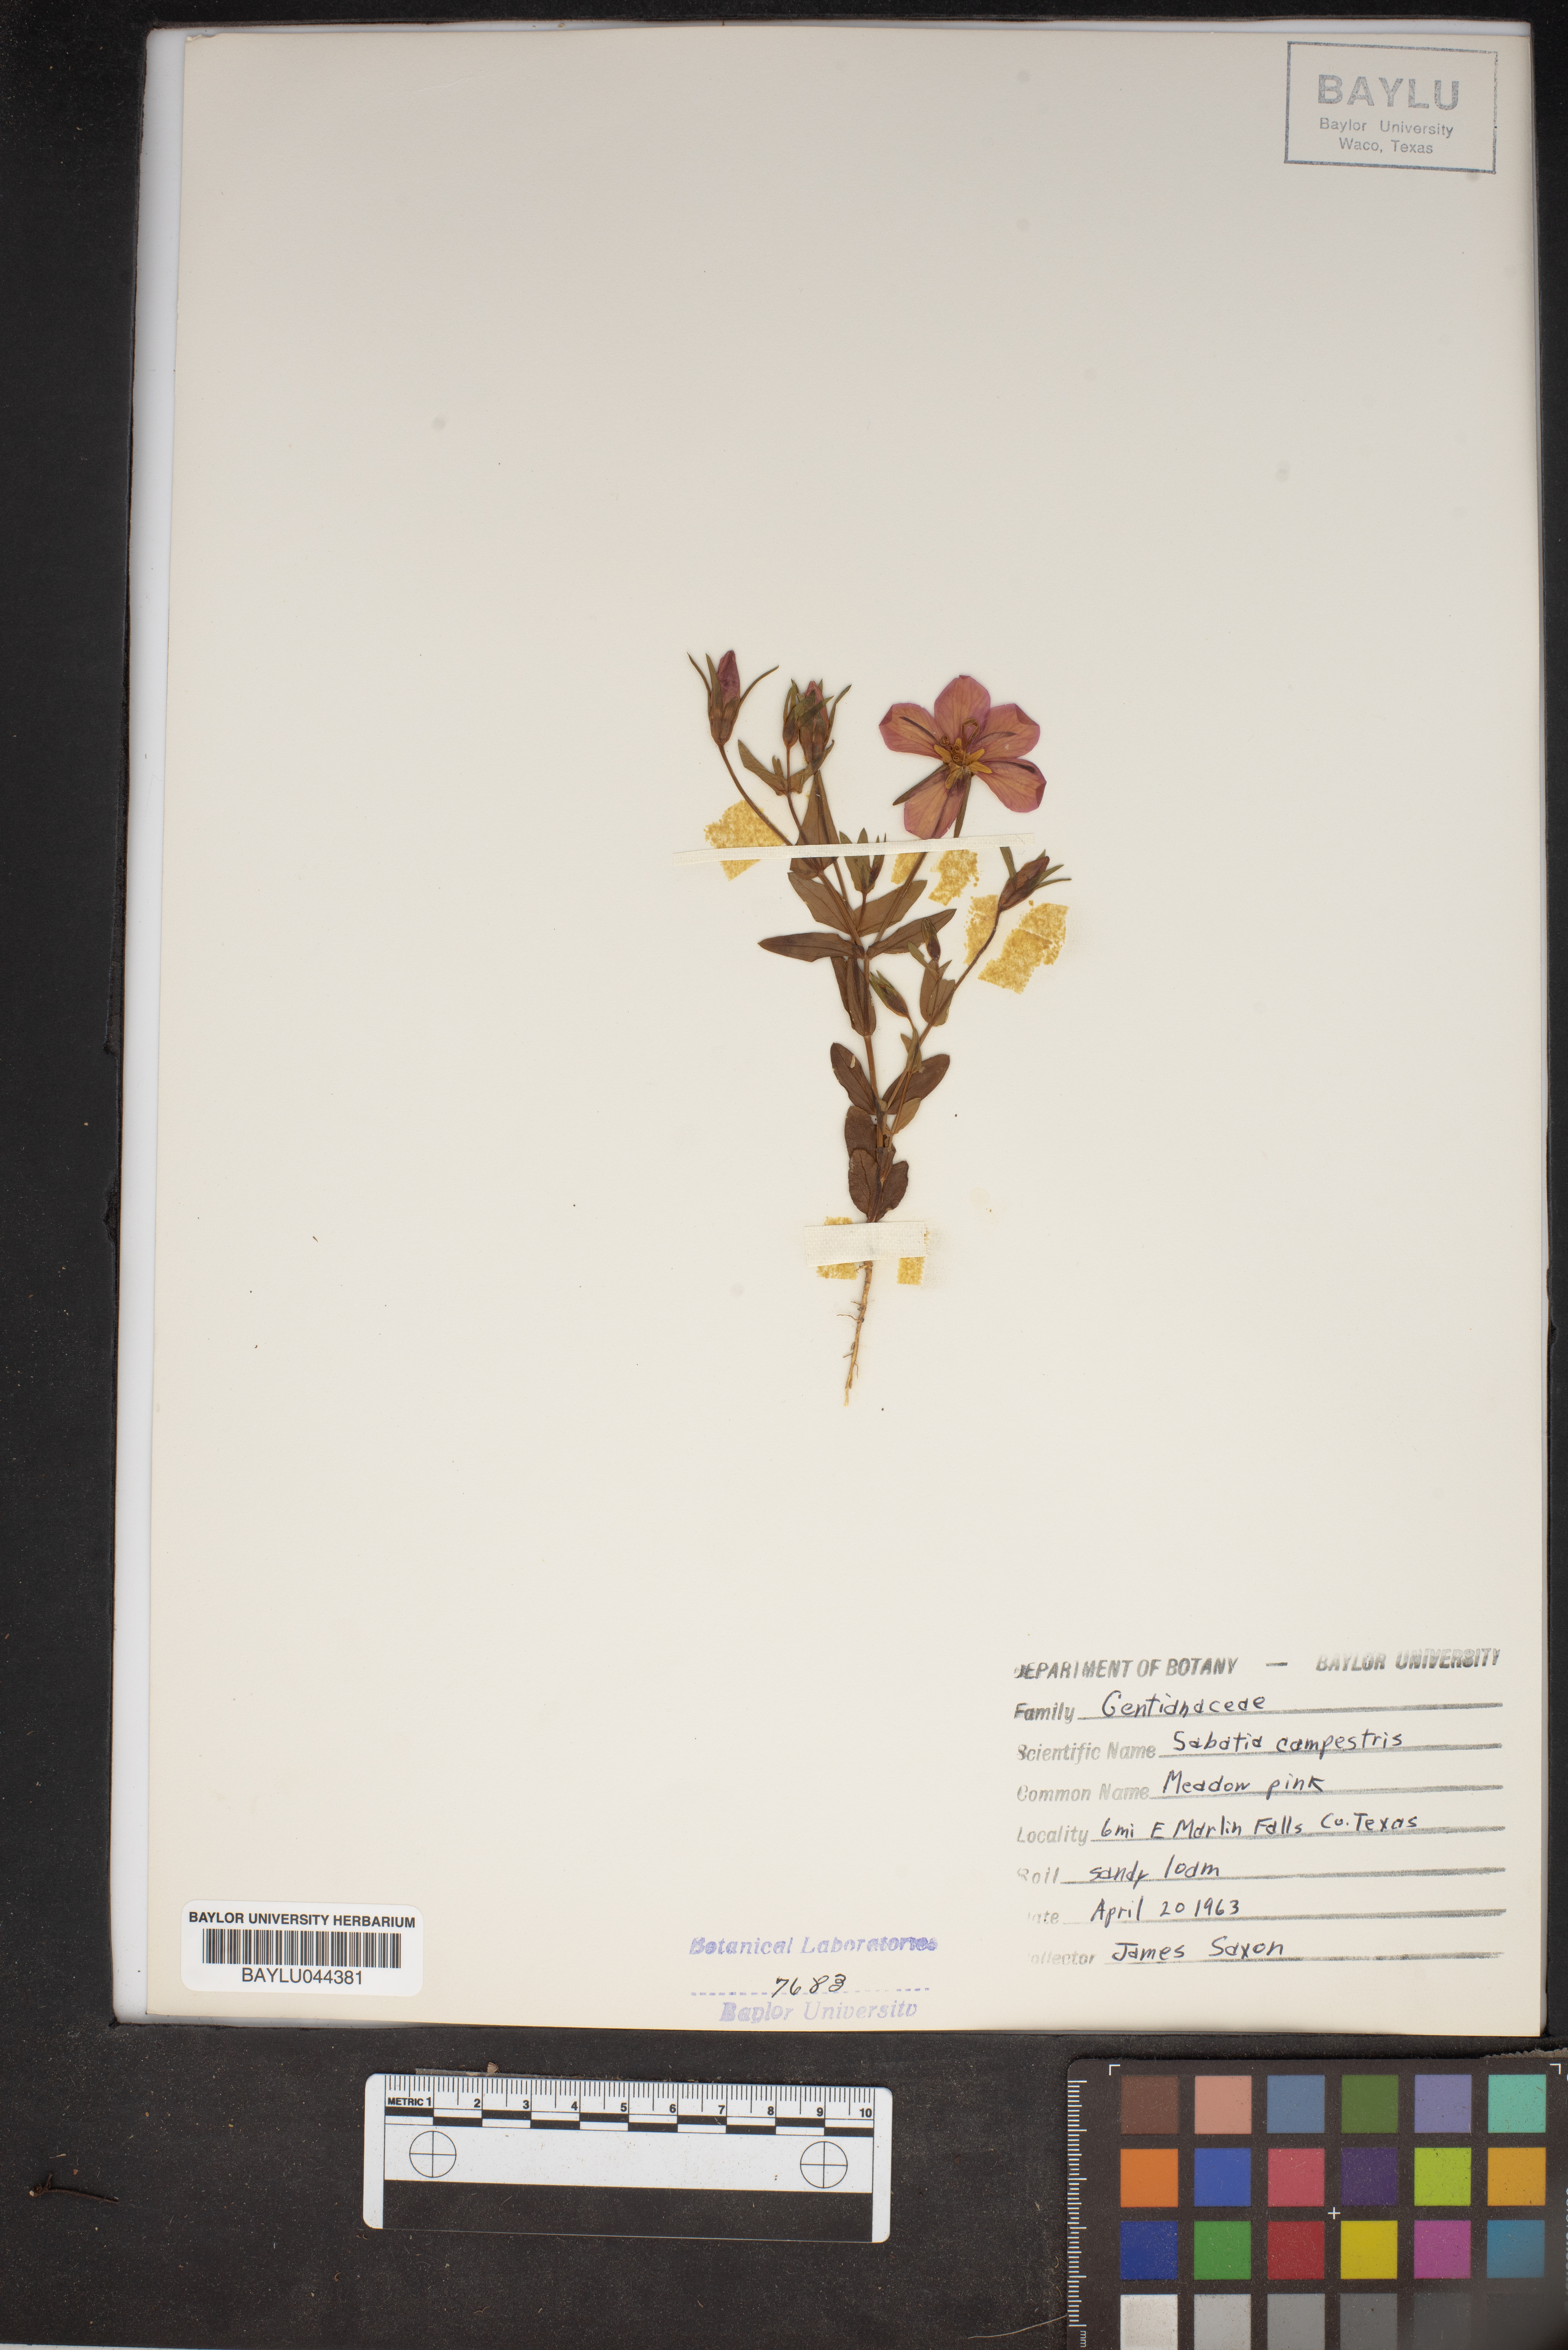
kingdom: Plantae
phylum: Tracheophyta
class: Magnoliopsida
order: Gentianales
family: Gentianaceae
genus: Sabatia
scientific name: Sabatia campestris
